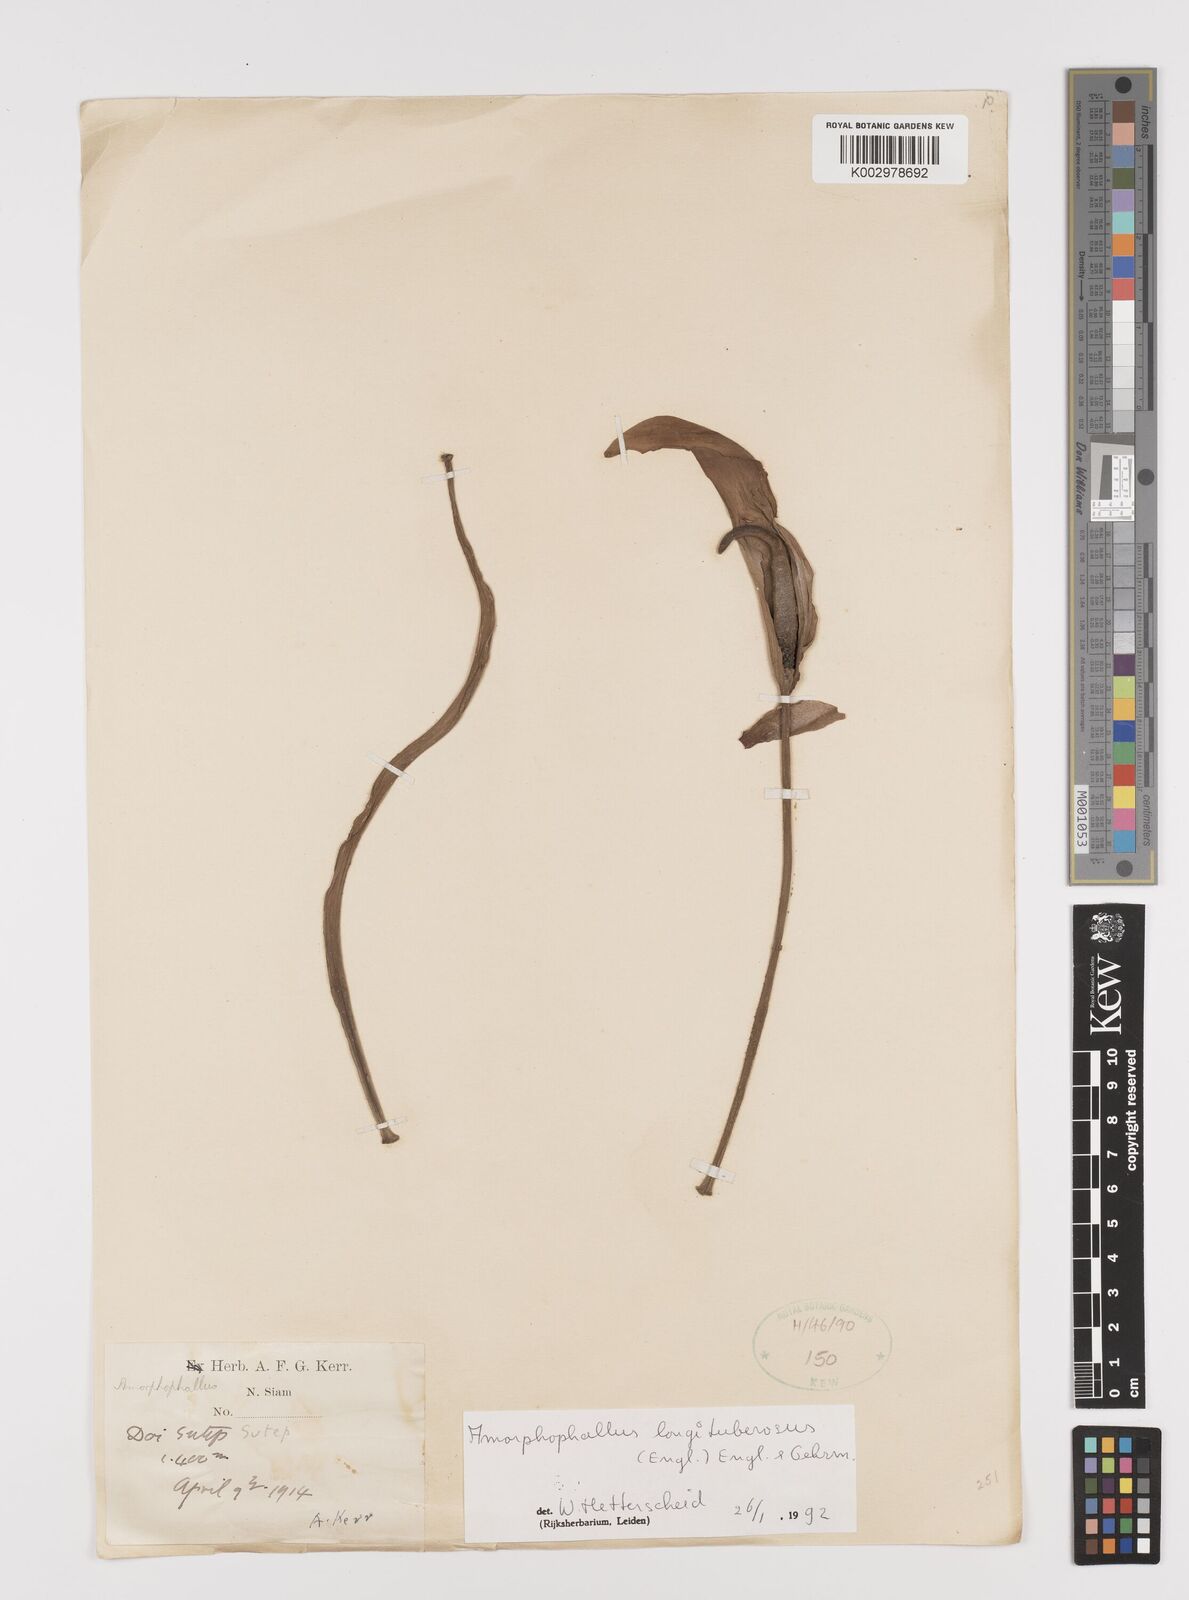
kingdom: Plantae
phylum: Tracheophyta
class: Liliopsida
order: Alismatales
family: Araceae
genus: Amorphophallus
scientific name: Amorphophallus longituberosus
